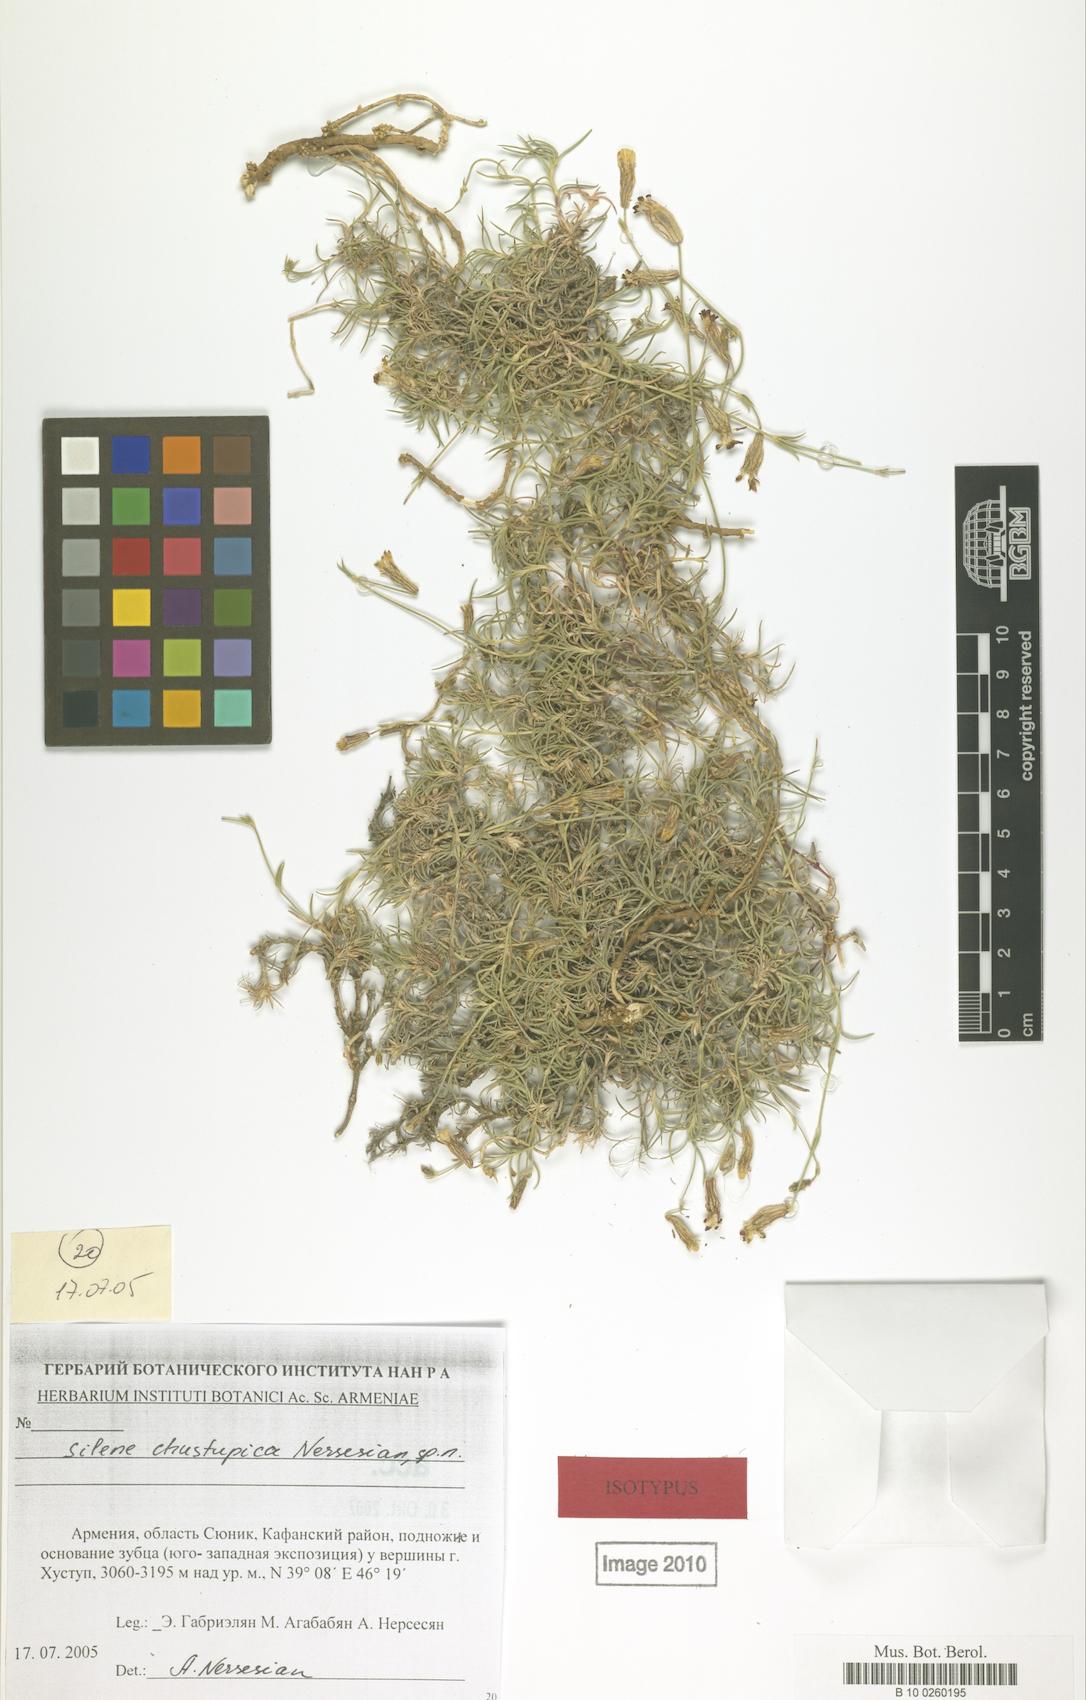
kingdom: Plantae
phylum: Tracheophyta
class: Magnoliopsida
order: Caryophyllales
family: Caryophyllaceae
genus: Silene
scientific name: Silene pungens
